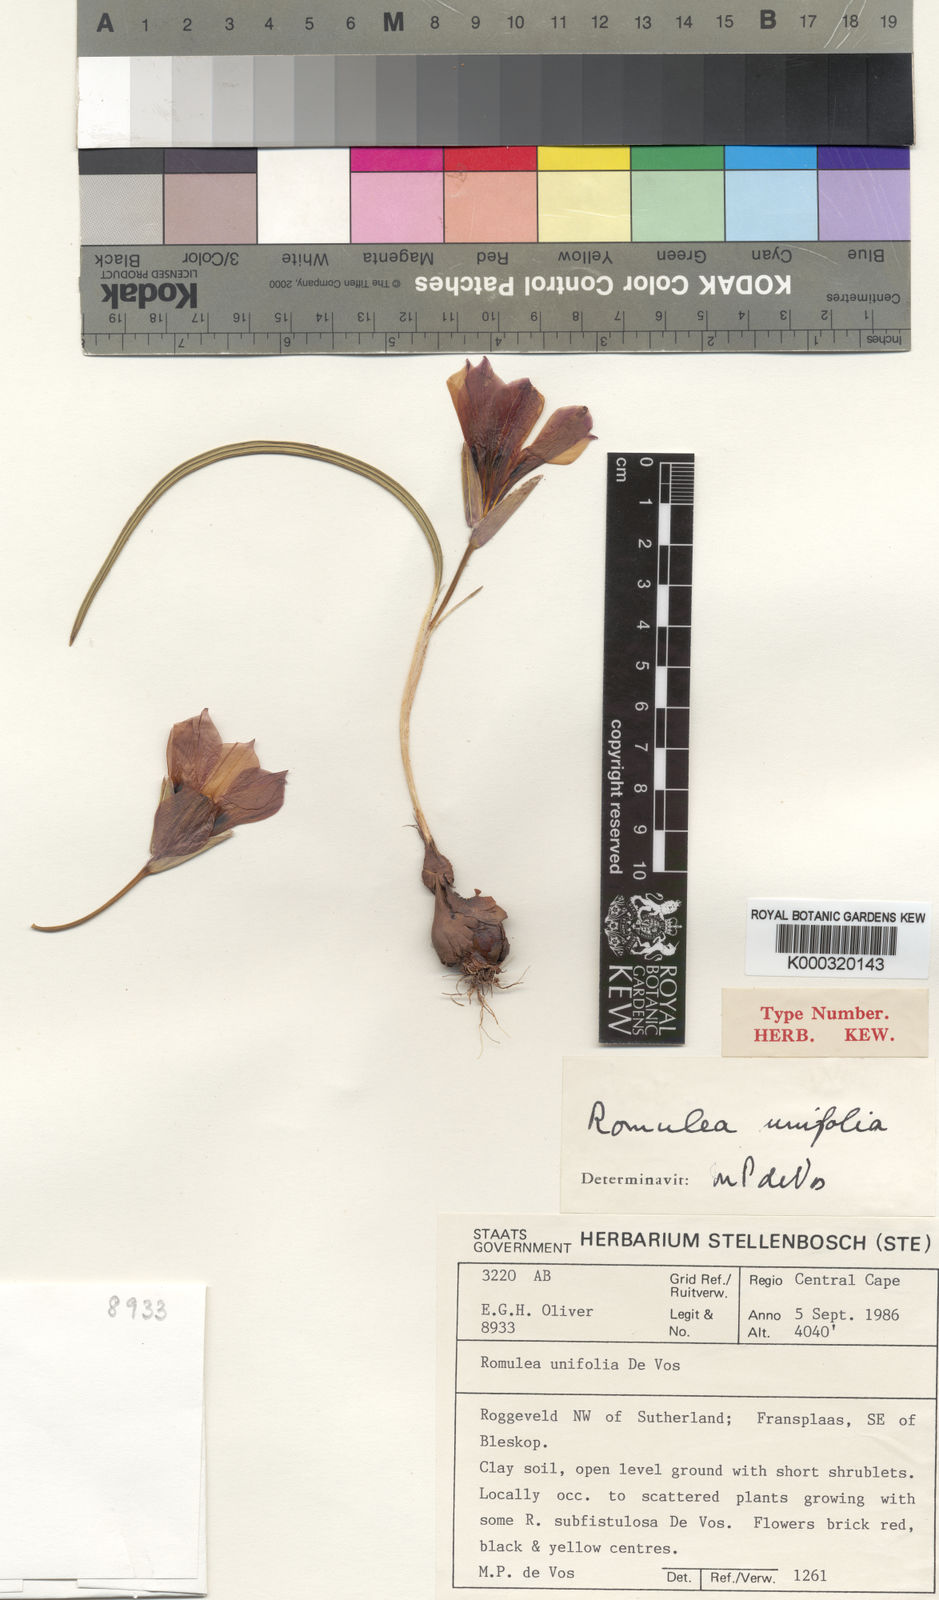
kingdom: Plantae
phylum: Tracheophyta
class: Liliopsida
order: Asparagales
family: Iridaceae
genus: Romulea
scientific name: Romulea unifolia
